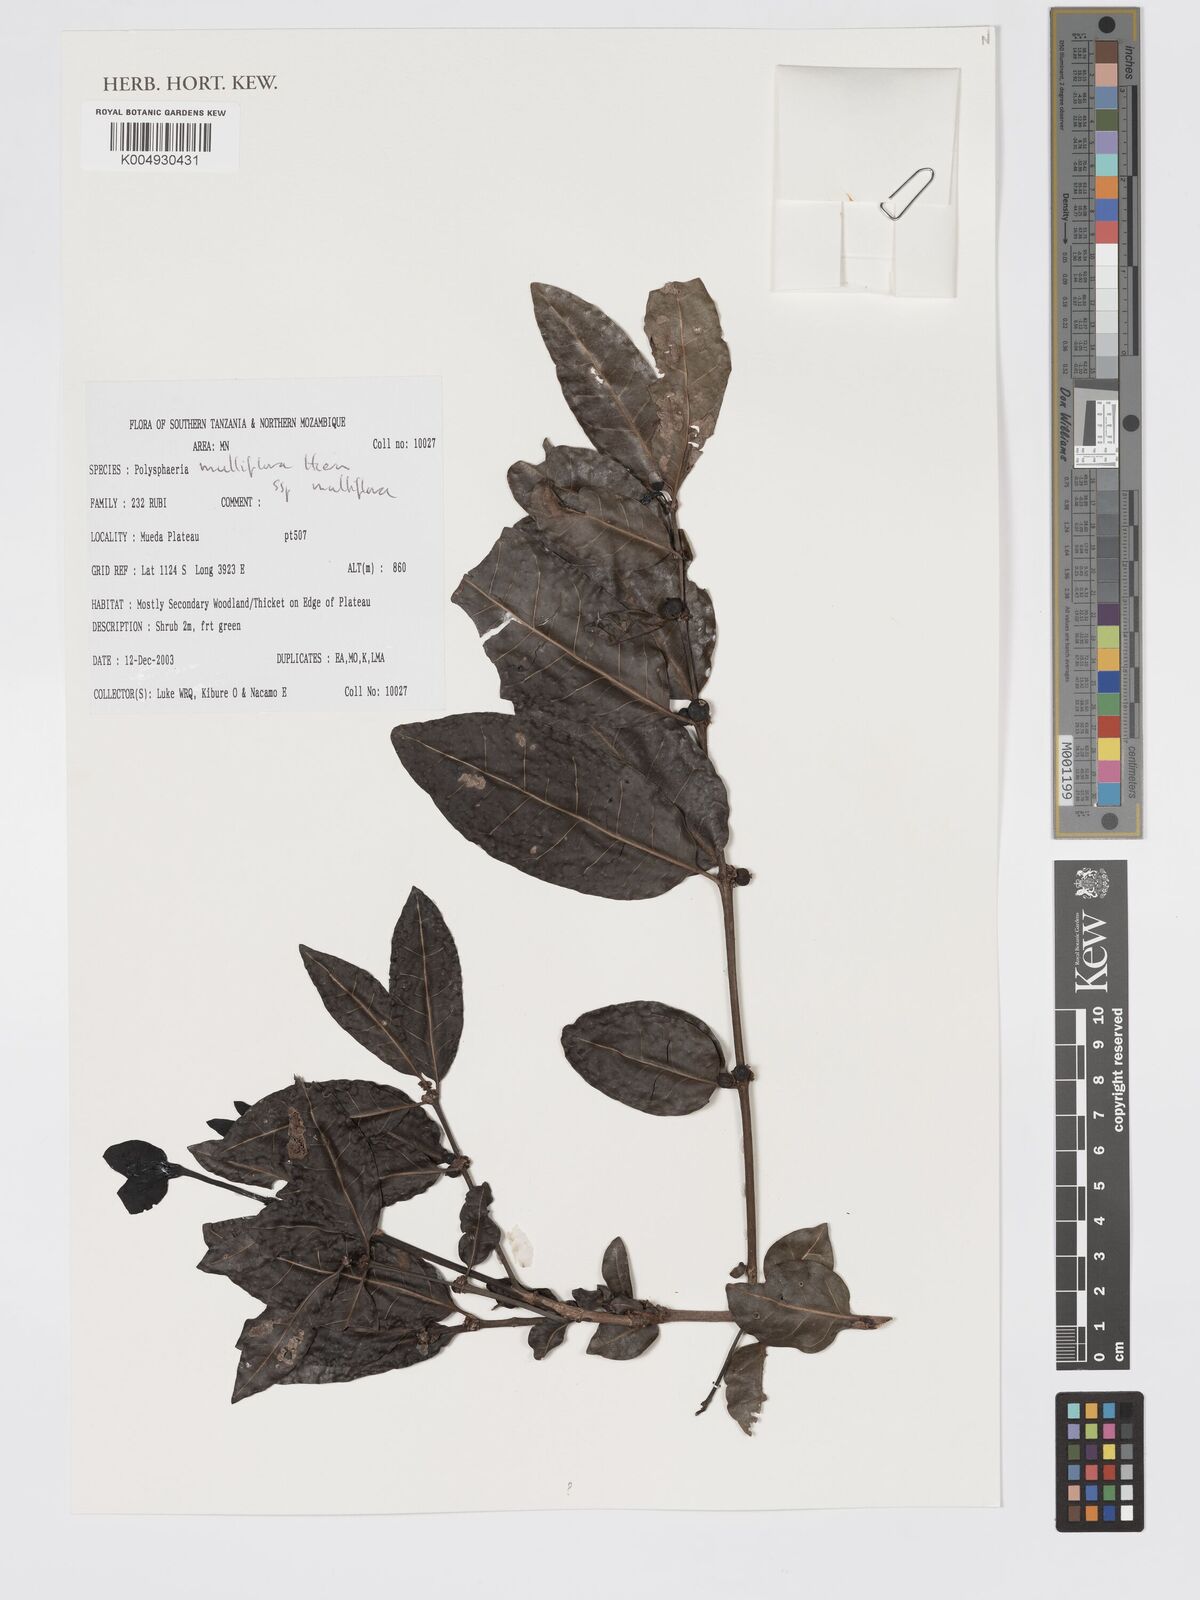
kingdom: Plantae
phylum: Tracheophyta
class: Magnoliopsida
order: Gentianales
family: Rubiaceae
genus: Polysphaeria
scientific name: Polysphaeria multiflora
